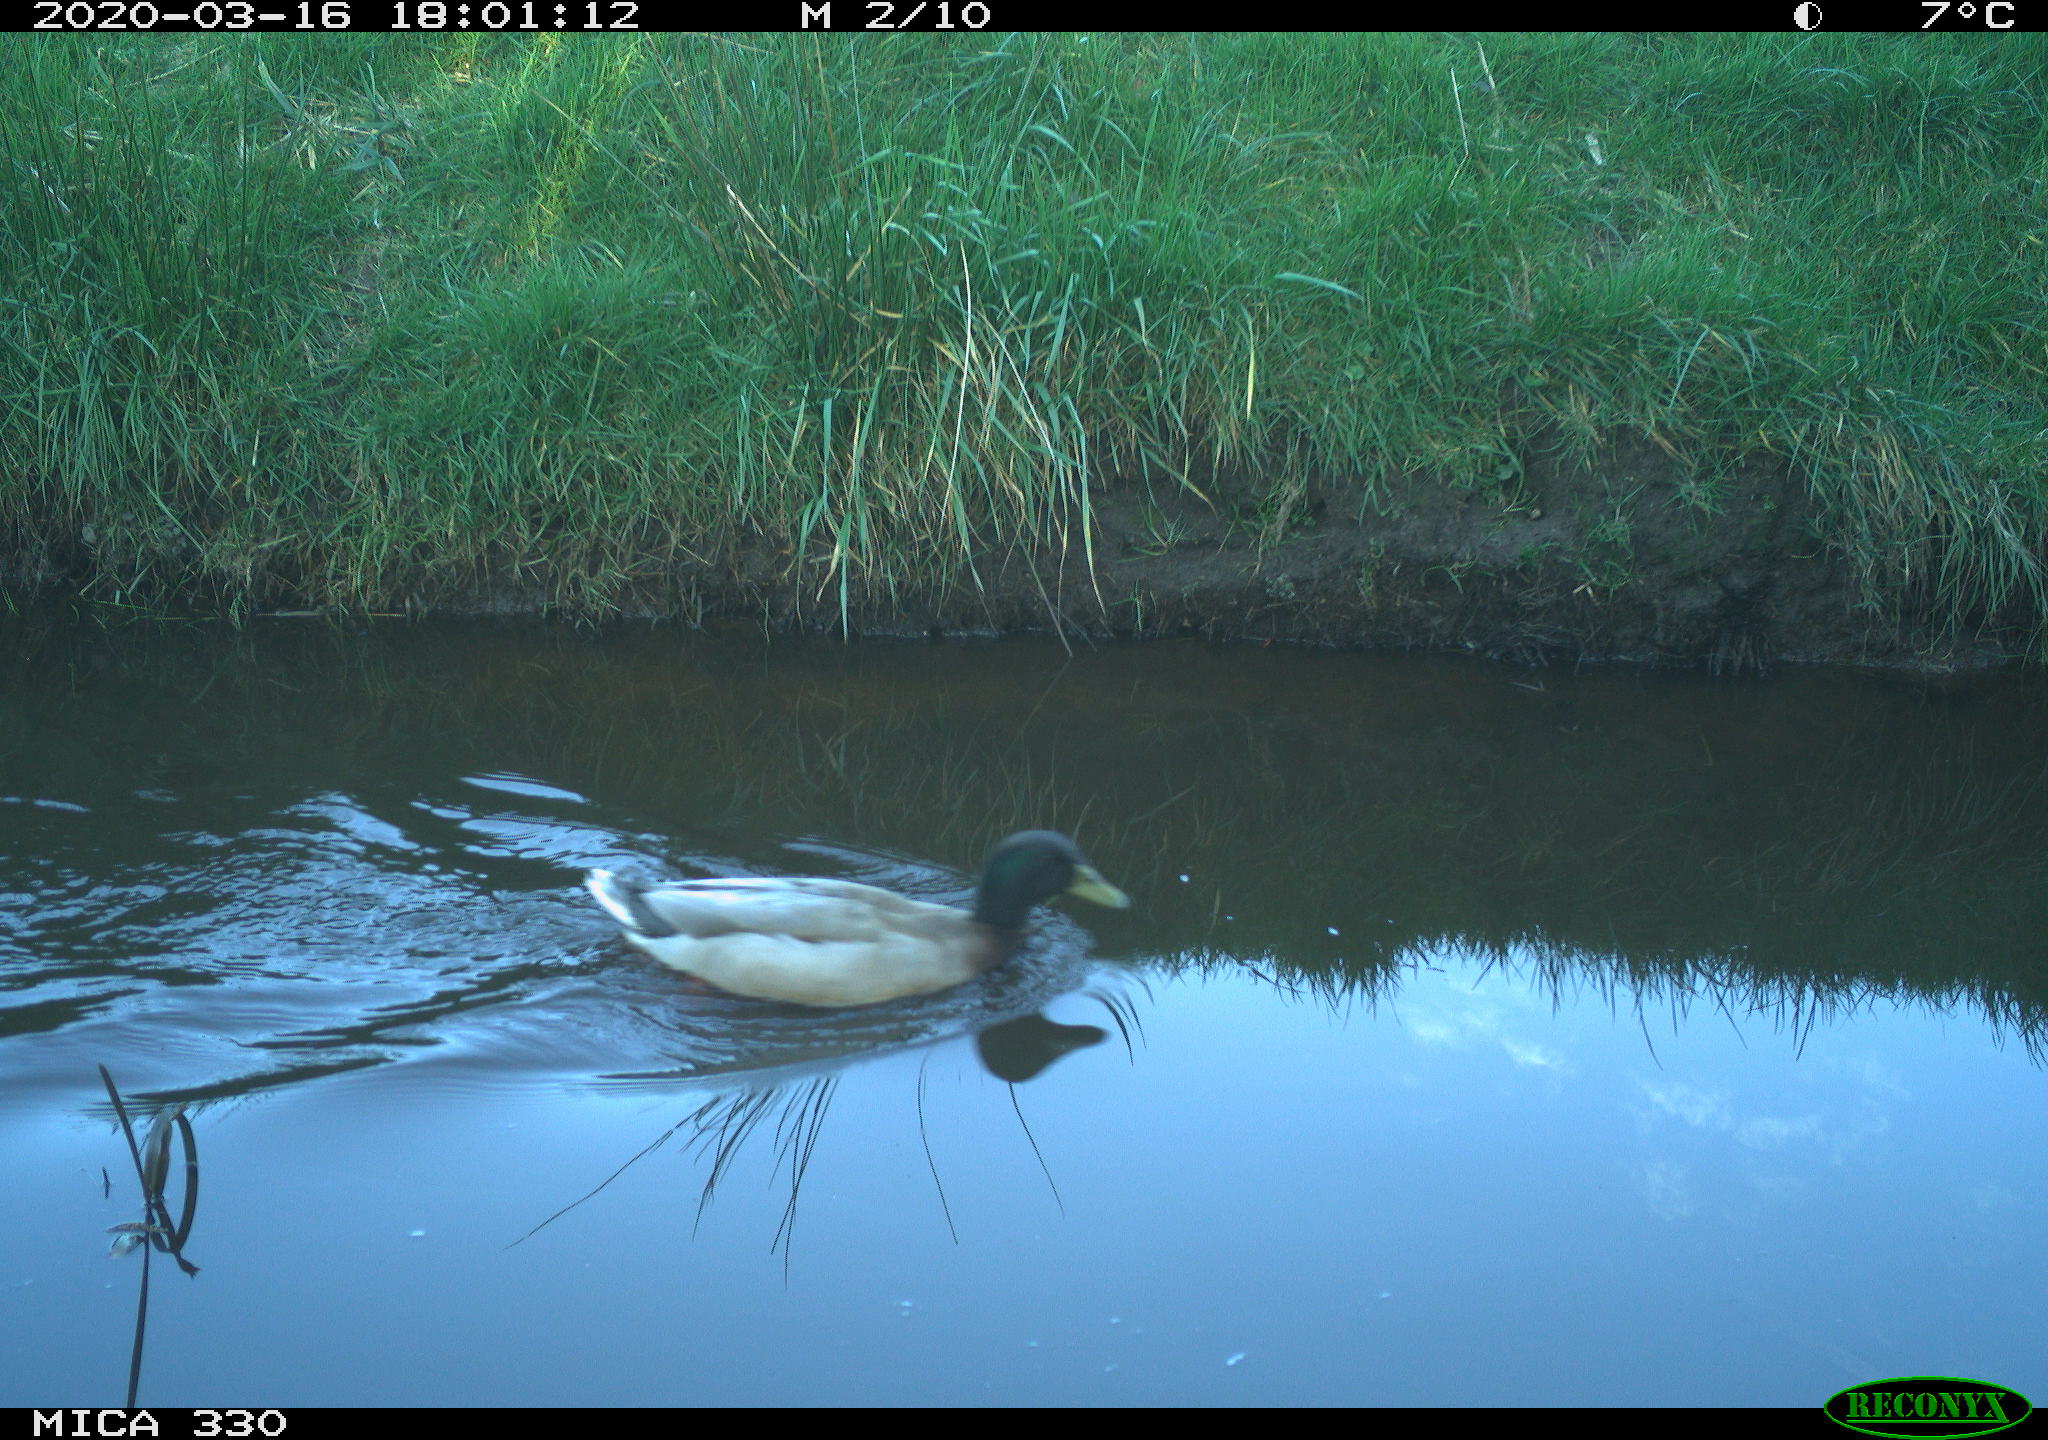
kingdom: Animalia
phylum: Chordata
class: Aves
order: Anseriformes
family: Anatidae
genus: Anas
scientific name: Anas platyrhynchos
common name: Mallard
